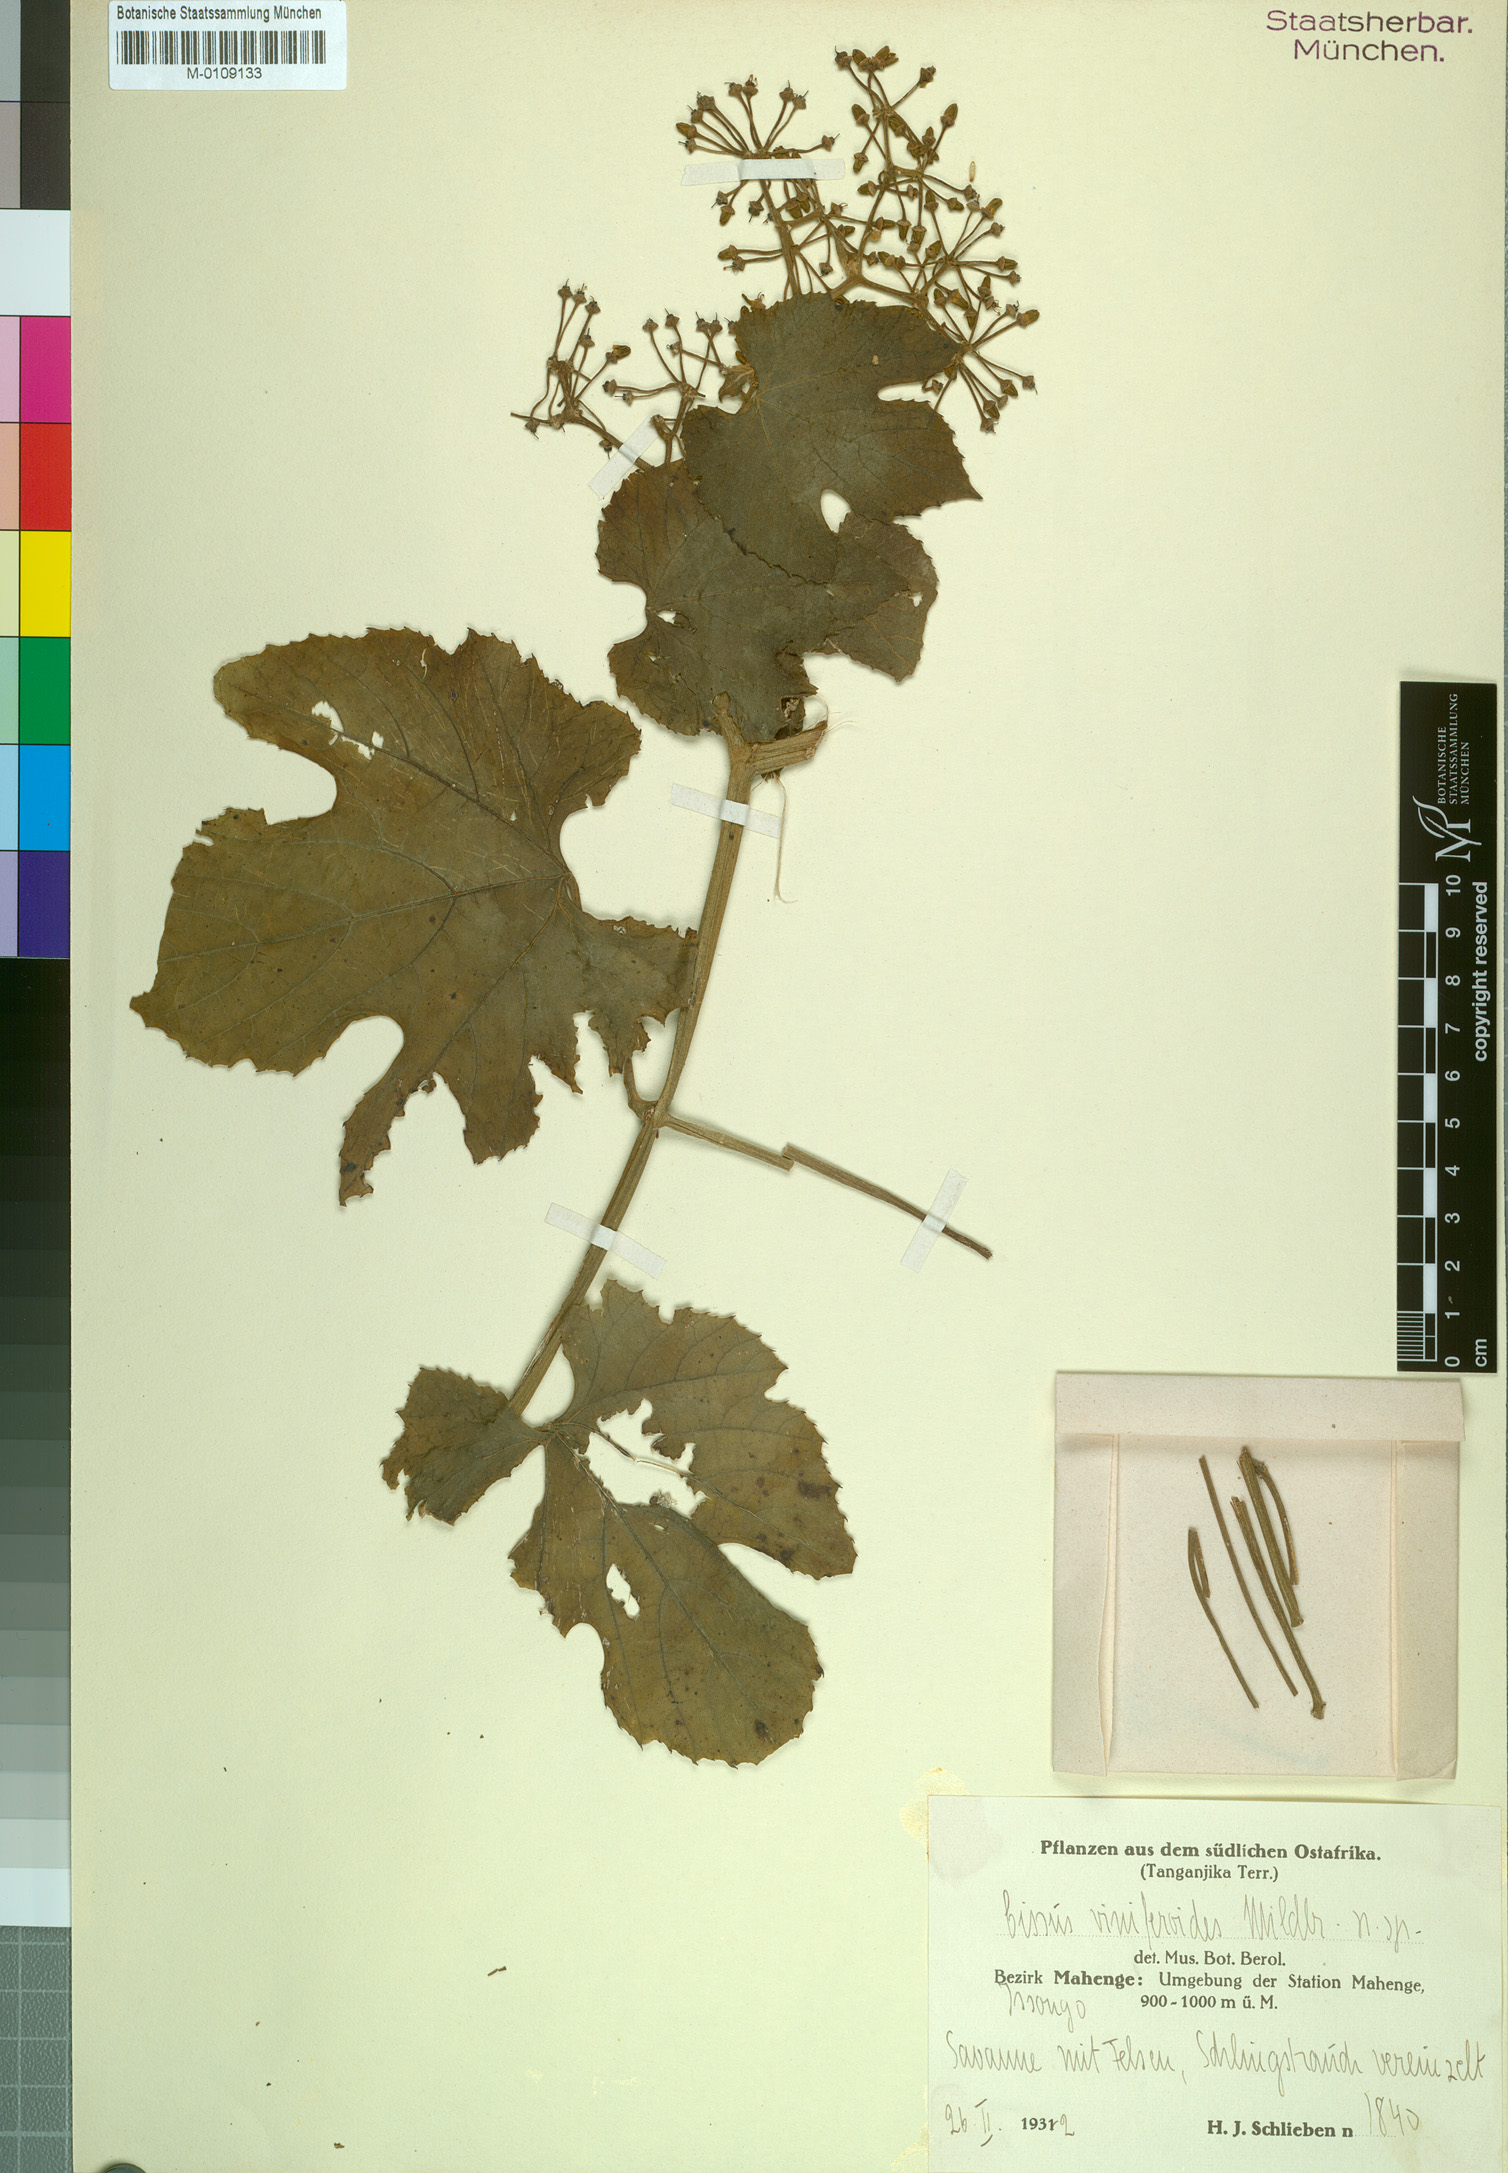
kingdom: Plantae
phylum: Tracheophyta
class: Magnoliopsida
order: Vitales
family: Vitaceae
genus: Cissus
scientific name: Cissus cucumerifolia
